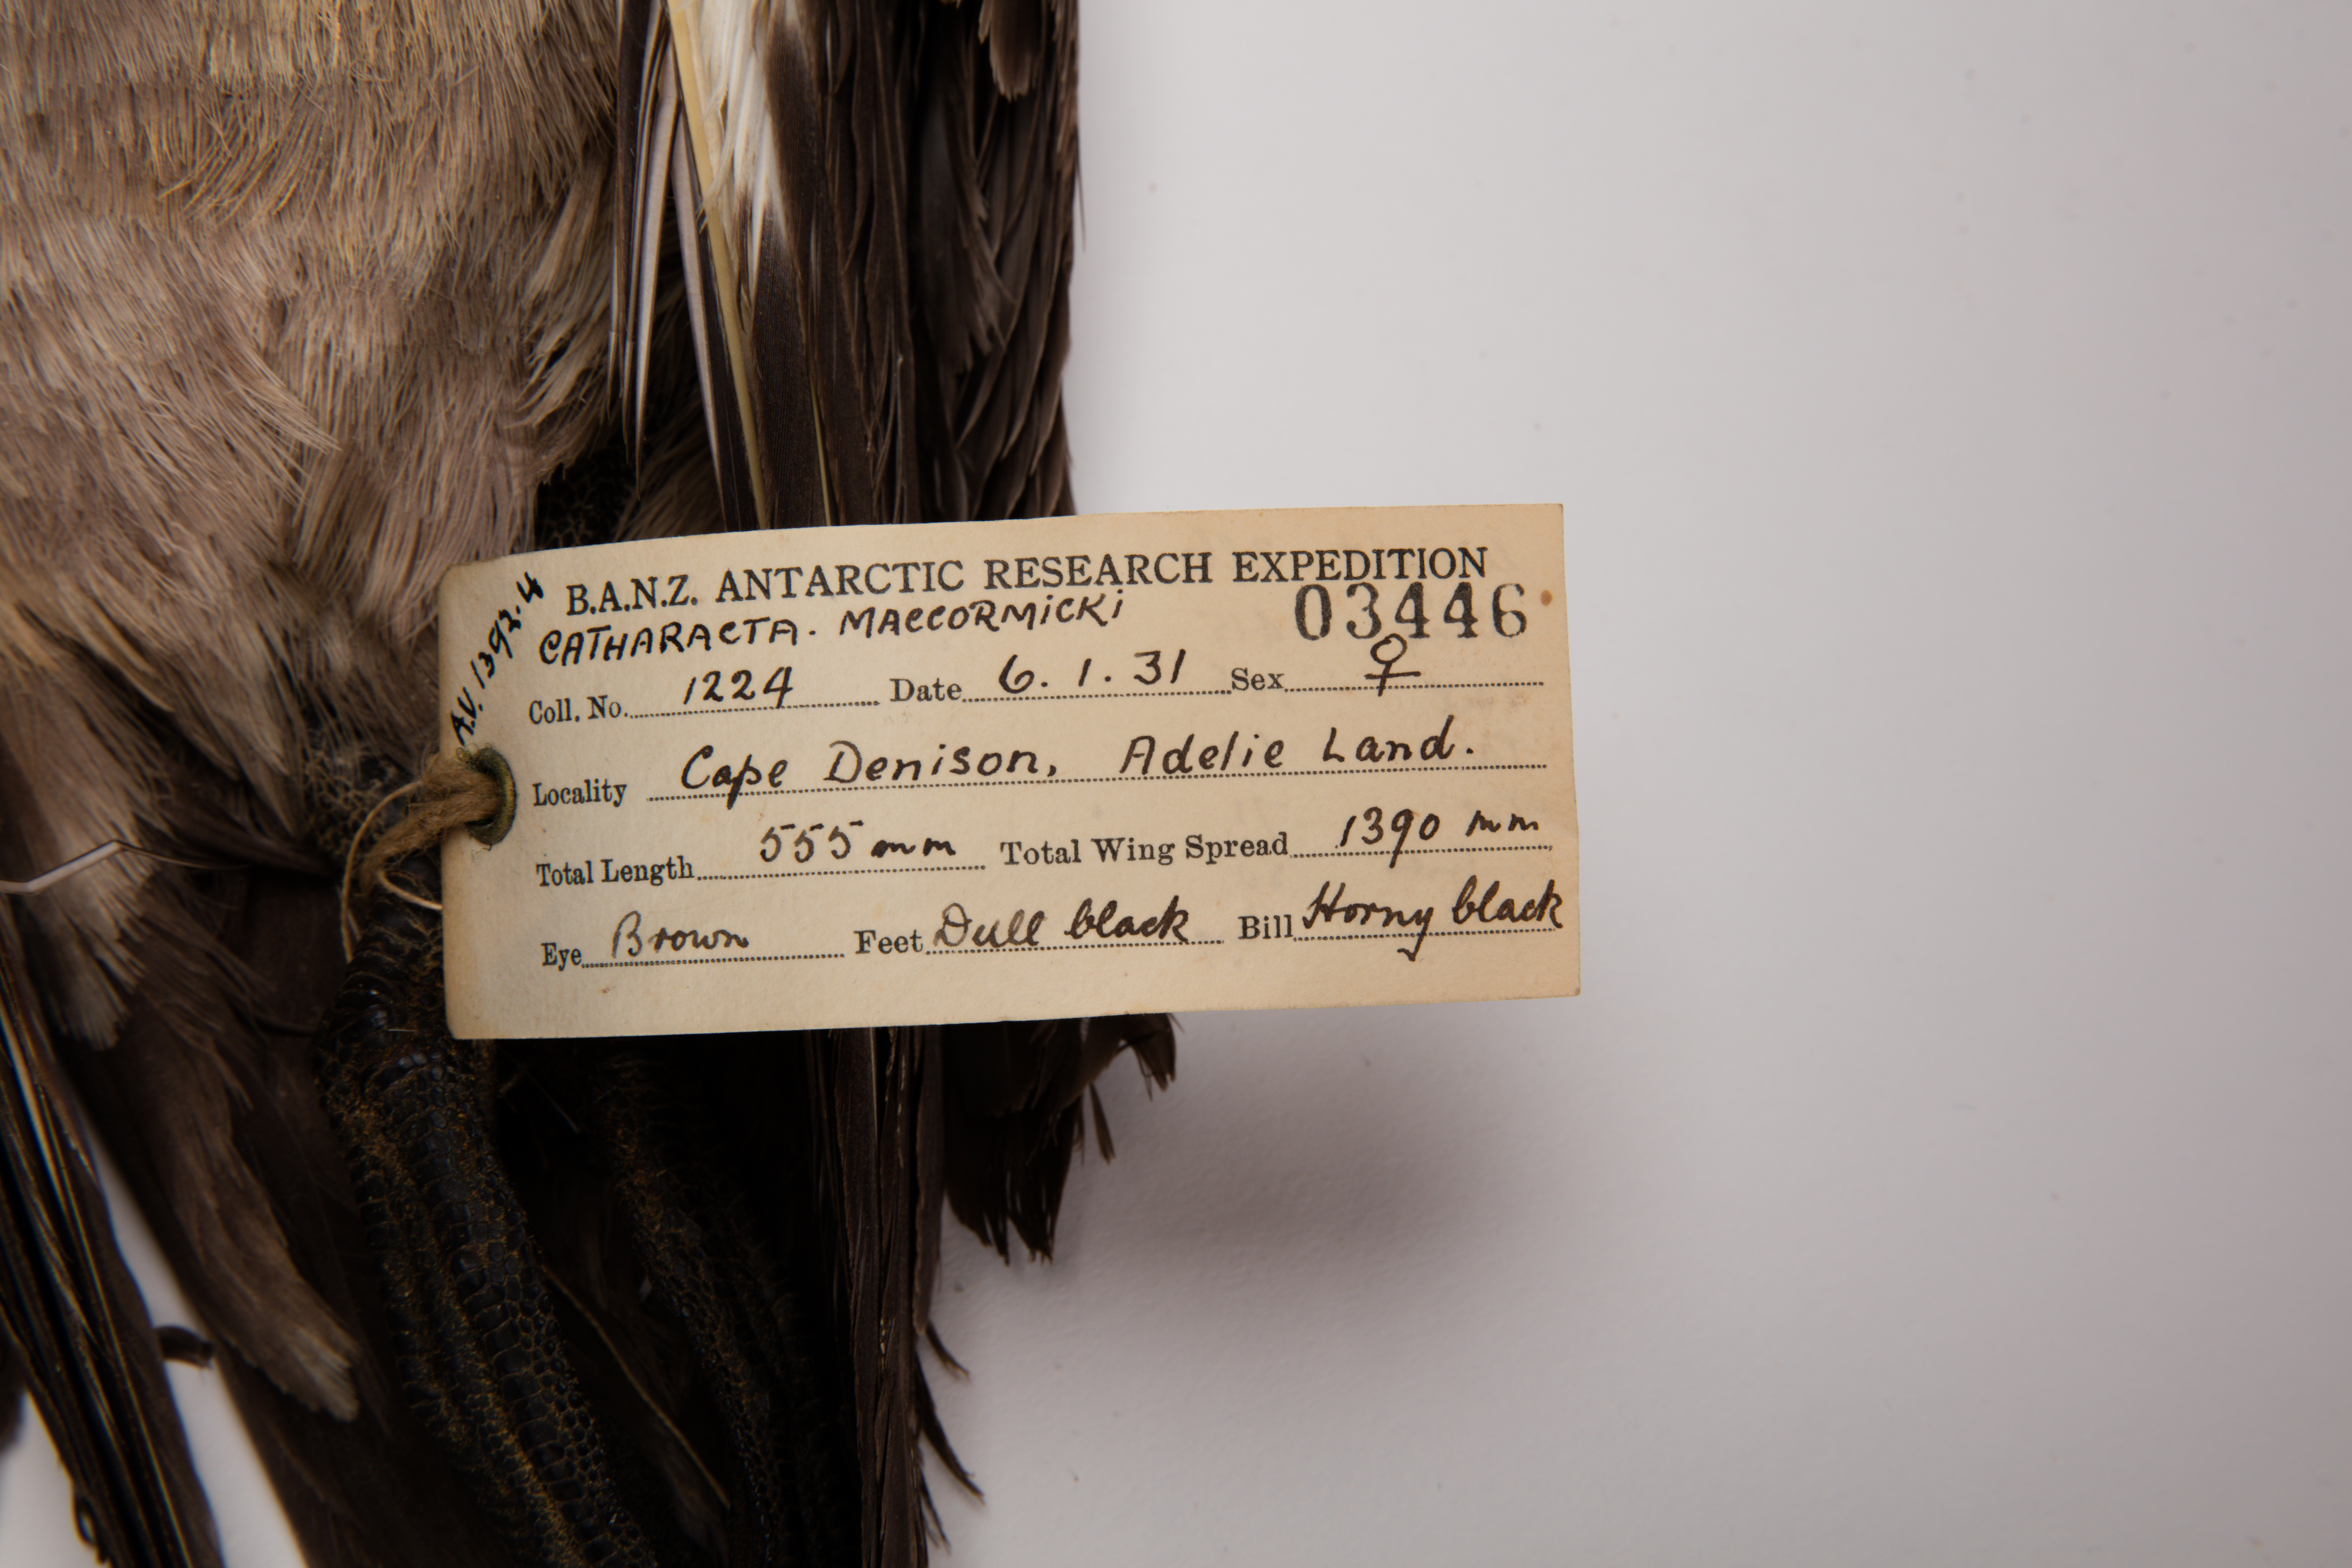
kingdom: Animalia
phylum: Chordata
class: Aves
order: Charadriiformes
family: Stercorariidae
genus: Stercorarius
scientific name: Stercorarius maccormicki
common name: South polar skua
